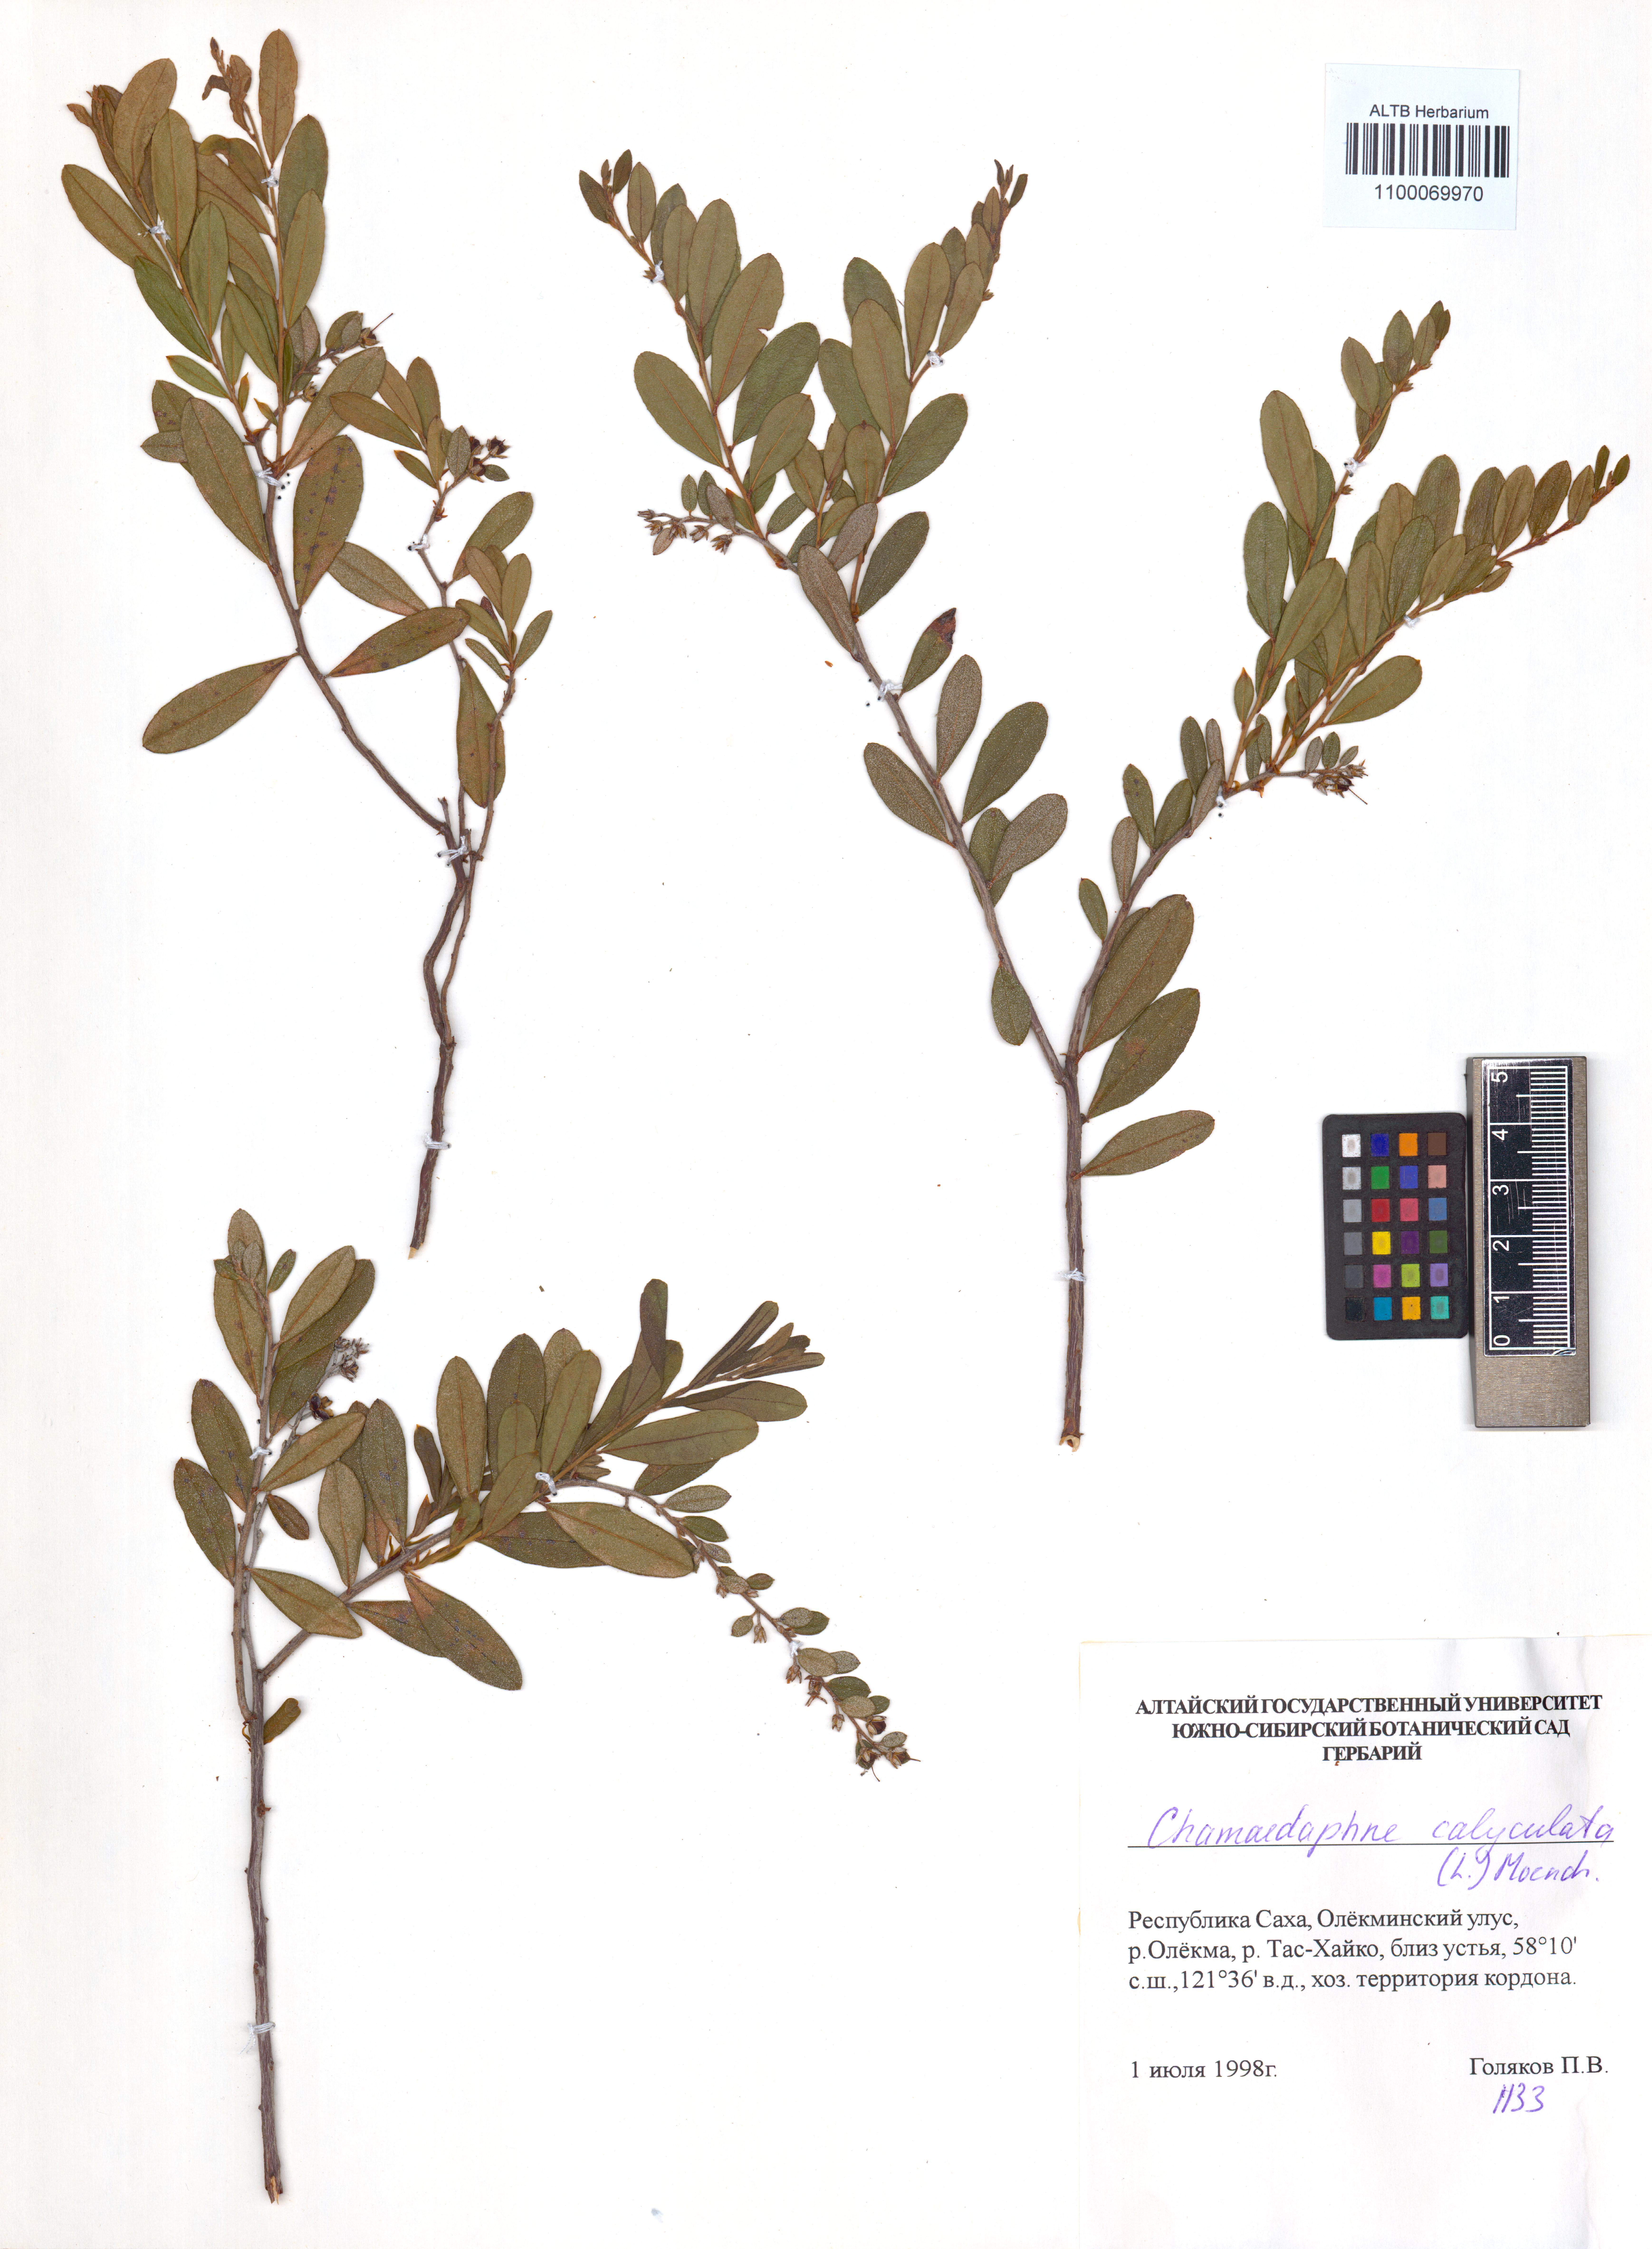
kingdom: Plantae
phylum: Tracheophyta
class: Magnoliopsida
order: Ericales
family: Ericaceae
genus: Chamaedaphne
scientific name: Chamaedaphne calyculata
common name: Leatherleaf
